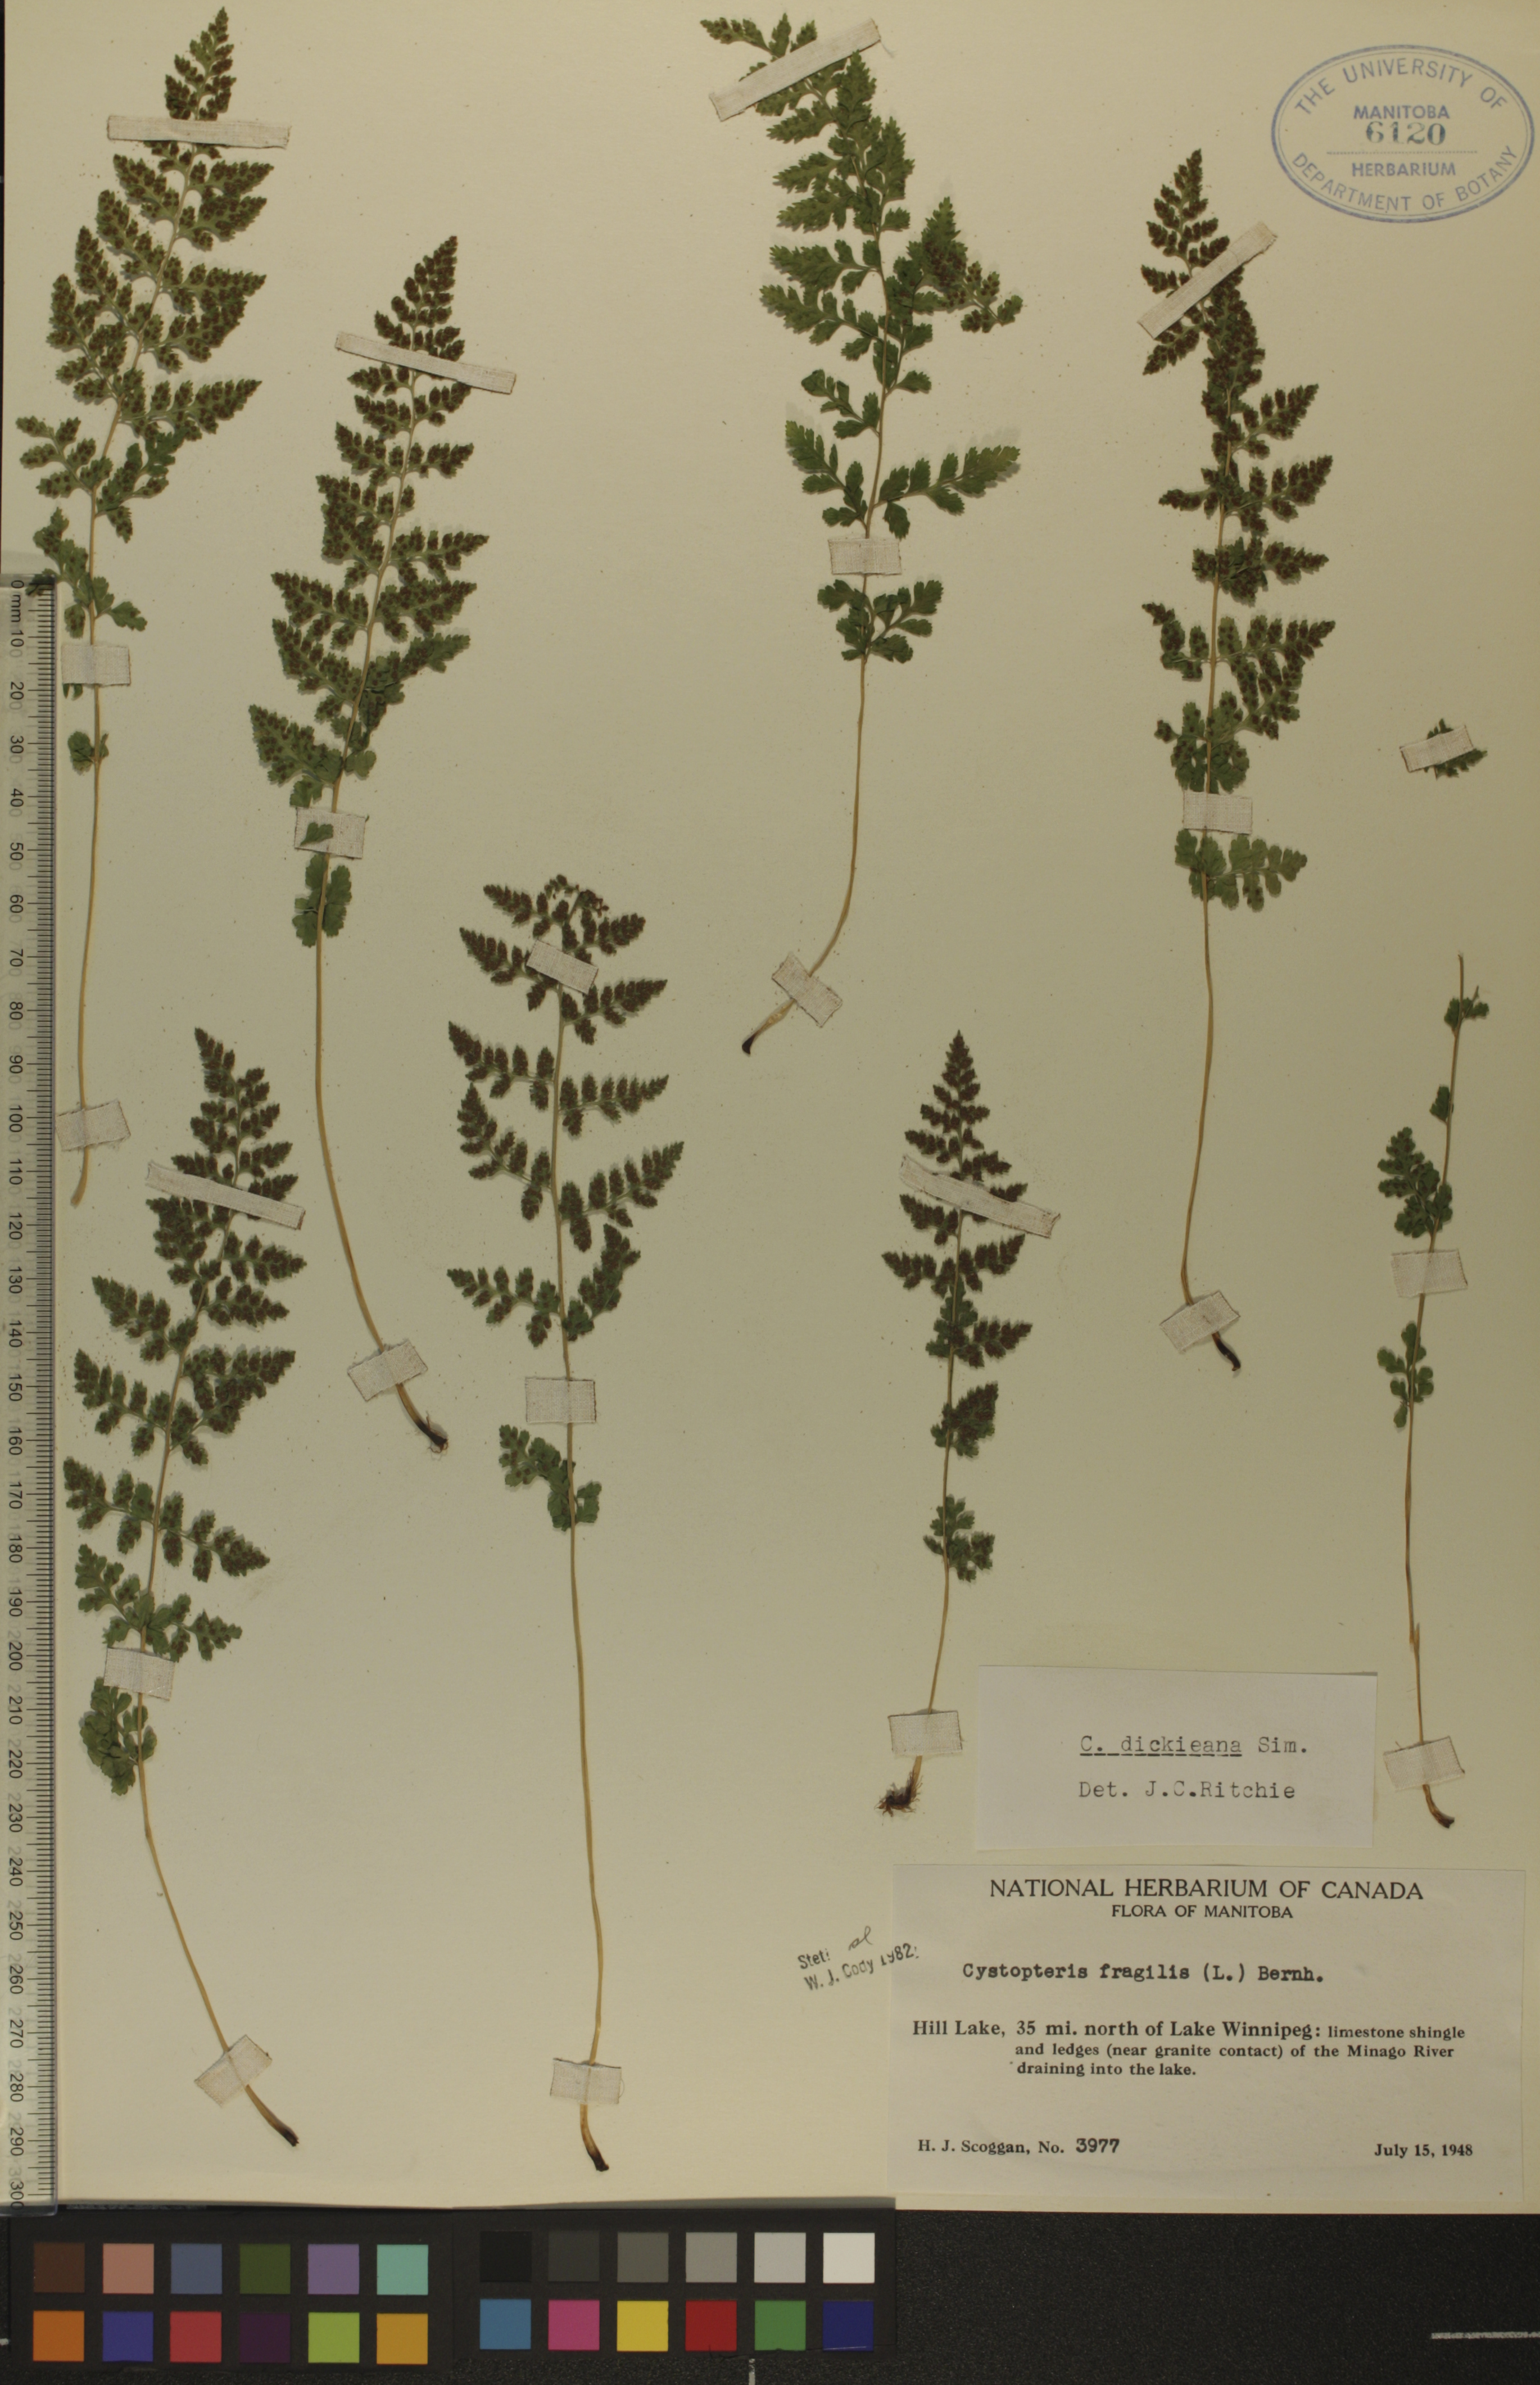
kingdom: Plantae
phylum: Tracheophyta
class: Polypodiopsida
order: Polypodiales
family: Cystopteridaceae
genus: Cystopteris
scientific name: Cystopteris fragilis
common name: Brittle bladder fern
